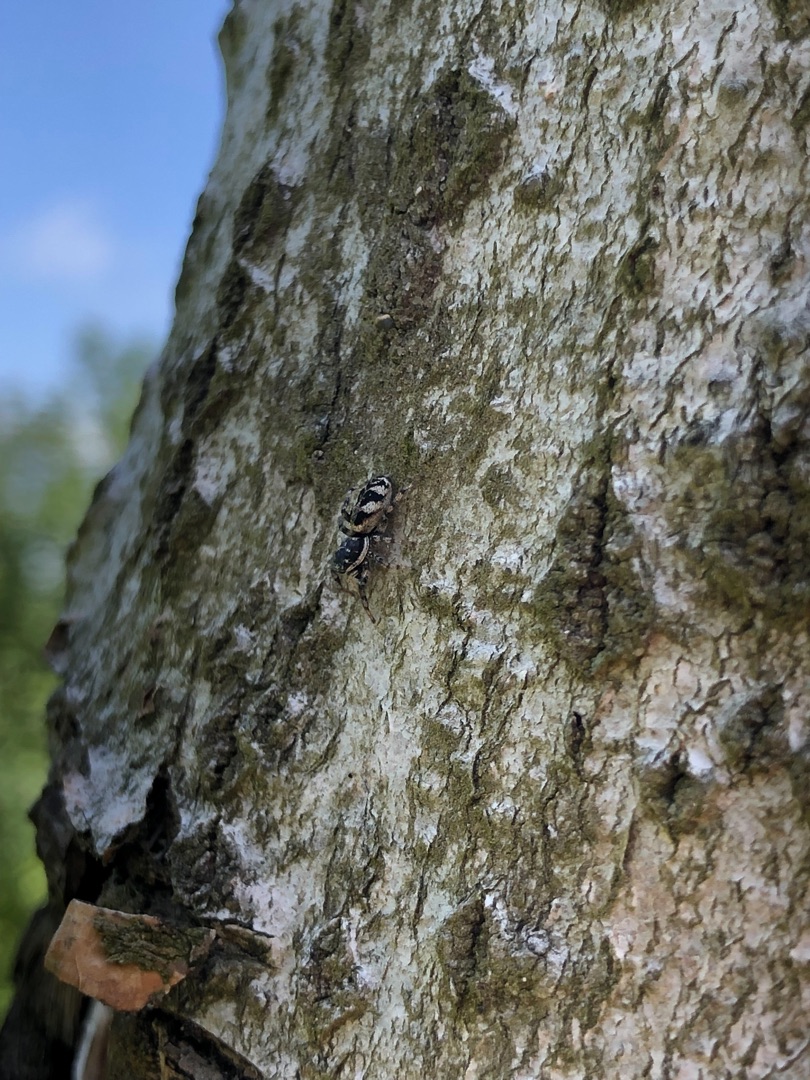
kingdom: Animalia
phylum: Arthropoda
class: Arachnida
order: Araneae
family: Salticidae
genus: Salticus
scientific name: Salticus
